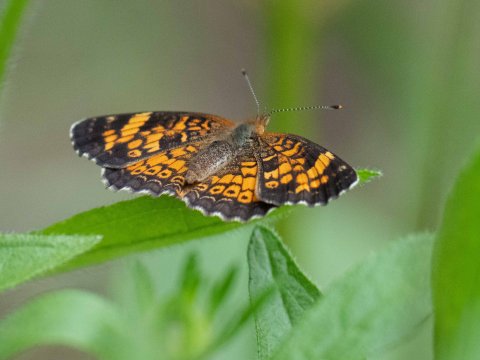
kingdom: Animalia
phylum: Arthropoda
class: Insecta
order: Lepidoptera
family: Nymphalidae
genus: Phyciodes
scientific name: Phyciodes
